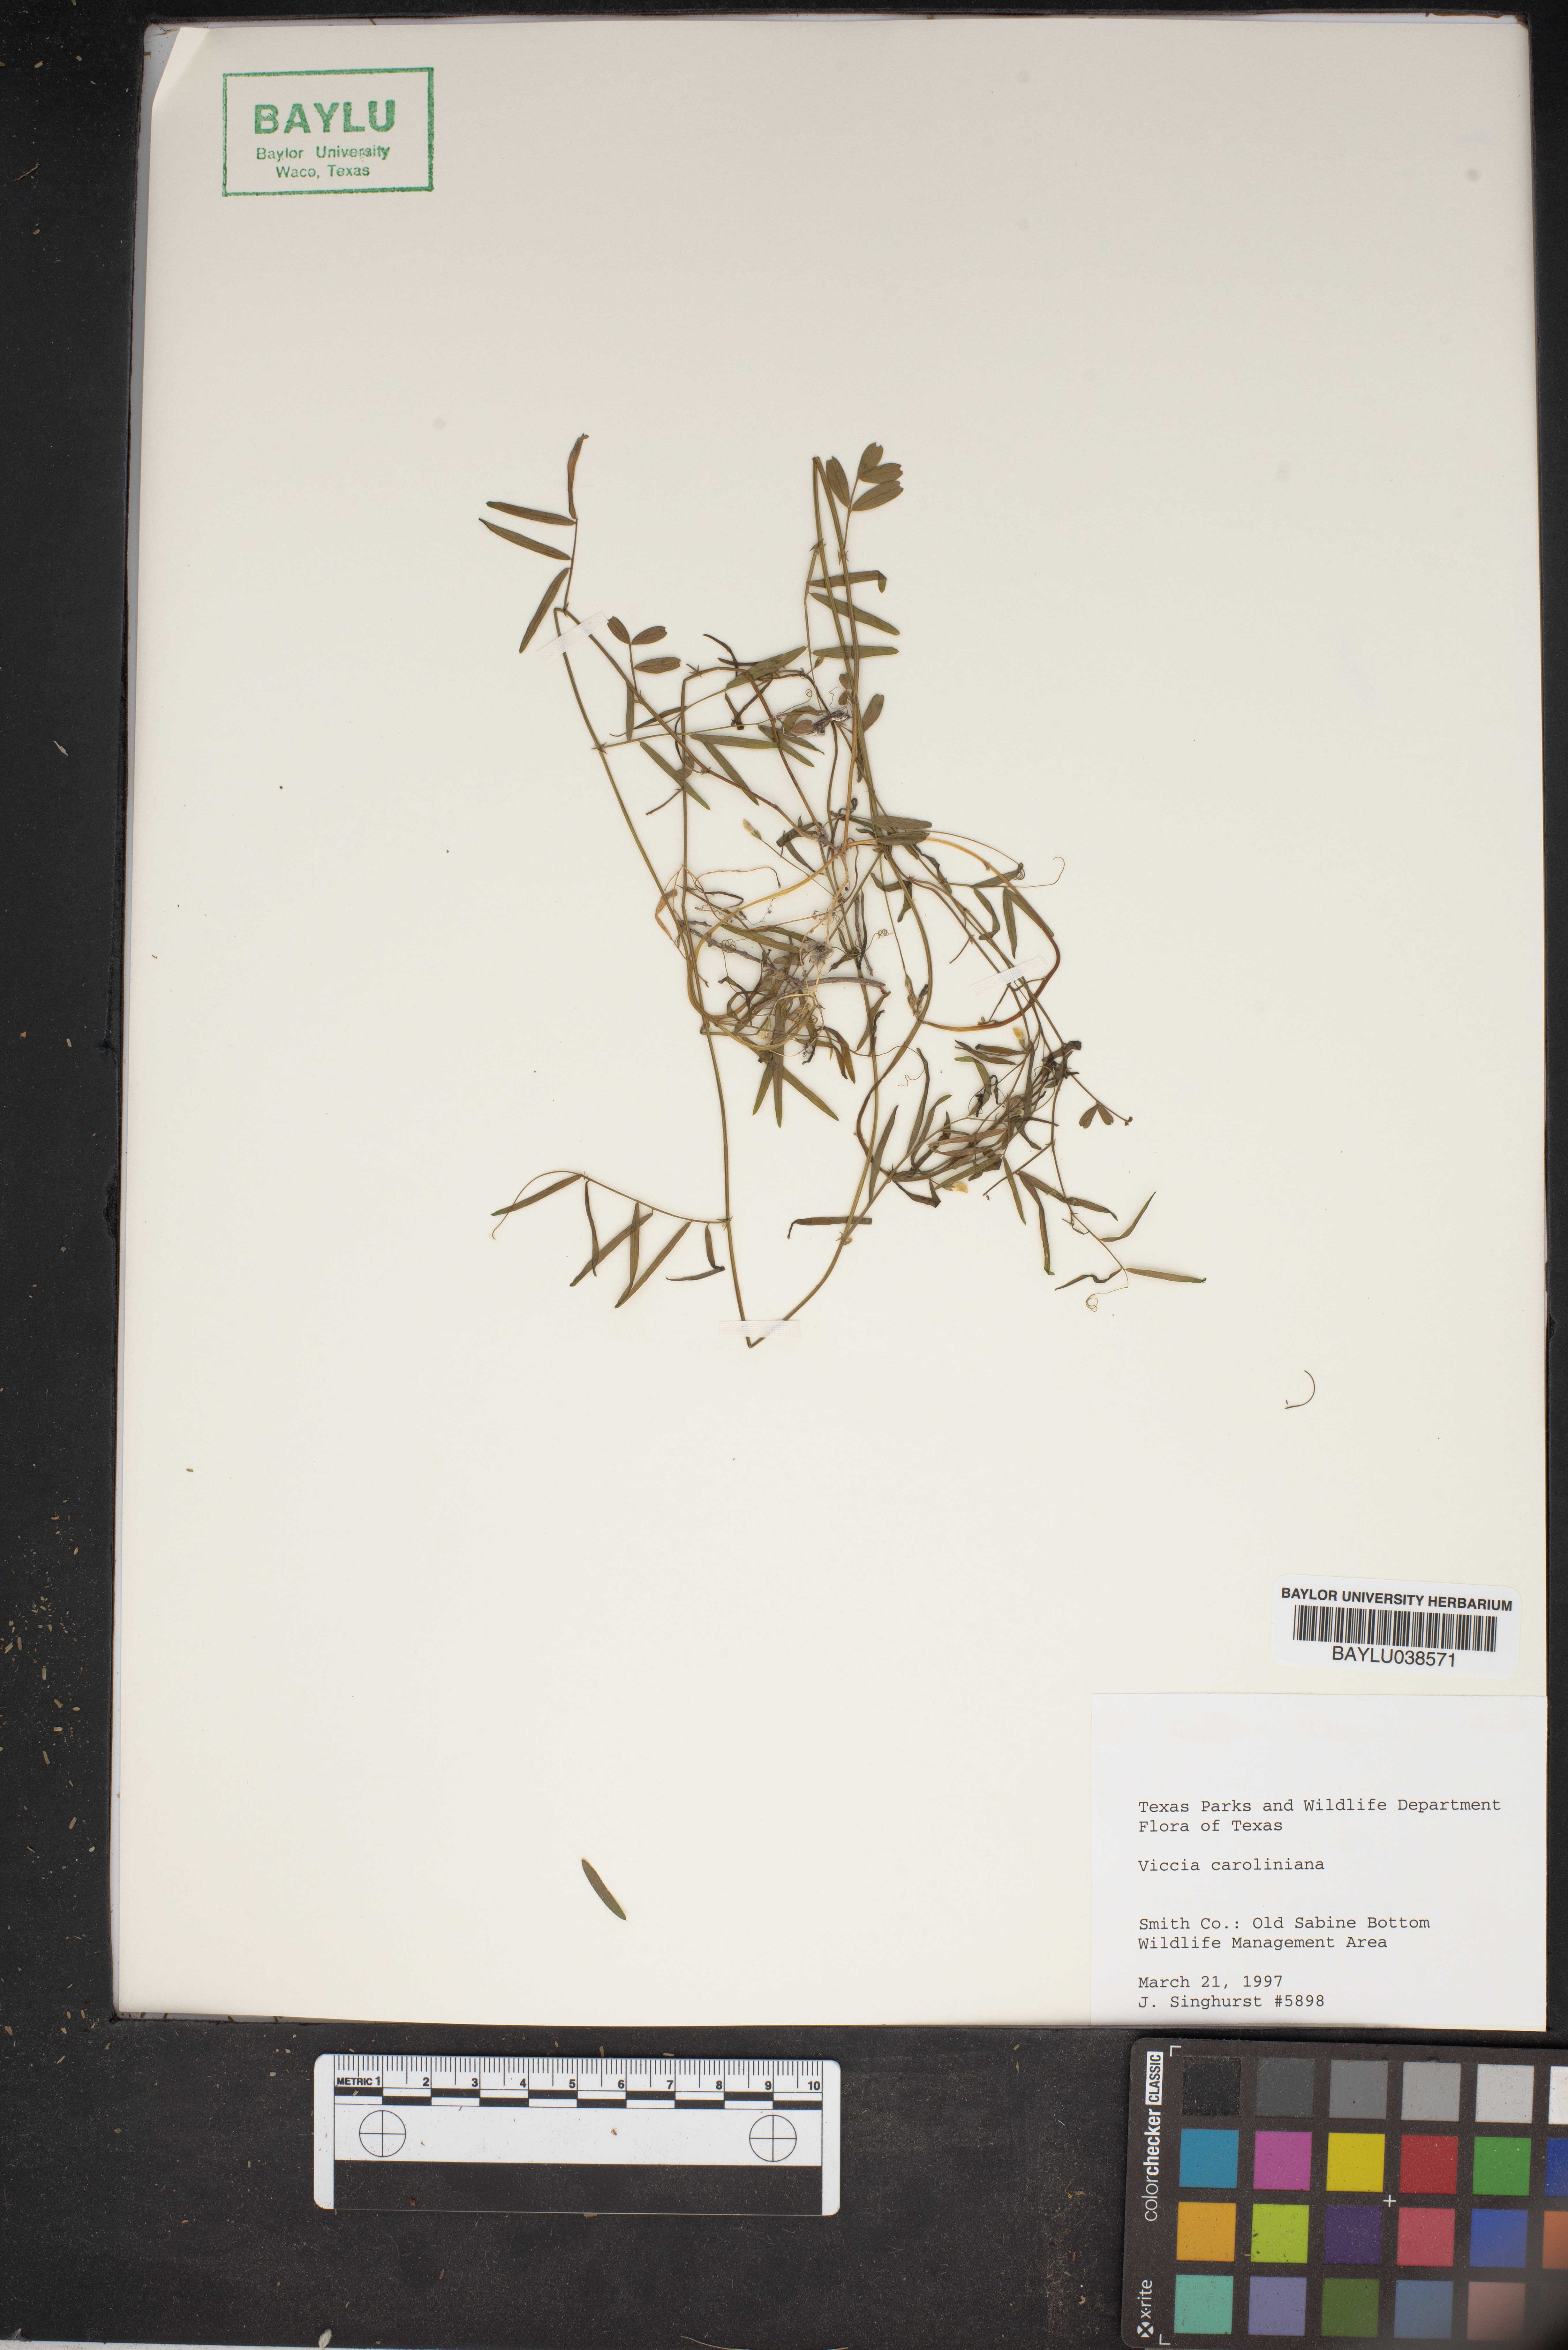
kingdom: Plantae
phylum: Tracheophyta
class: Magnoliopsida
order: Fabales
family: Fabaceae
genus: Vicia
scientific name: Vicia caroliniana
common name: Carolina vetch
